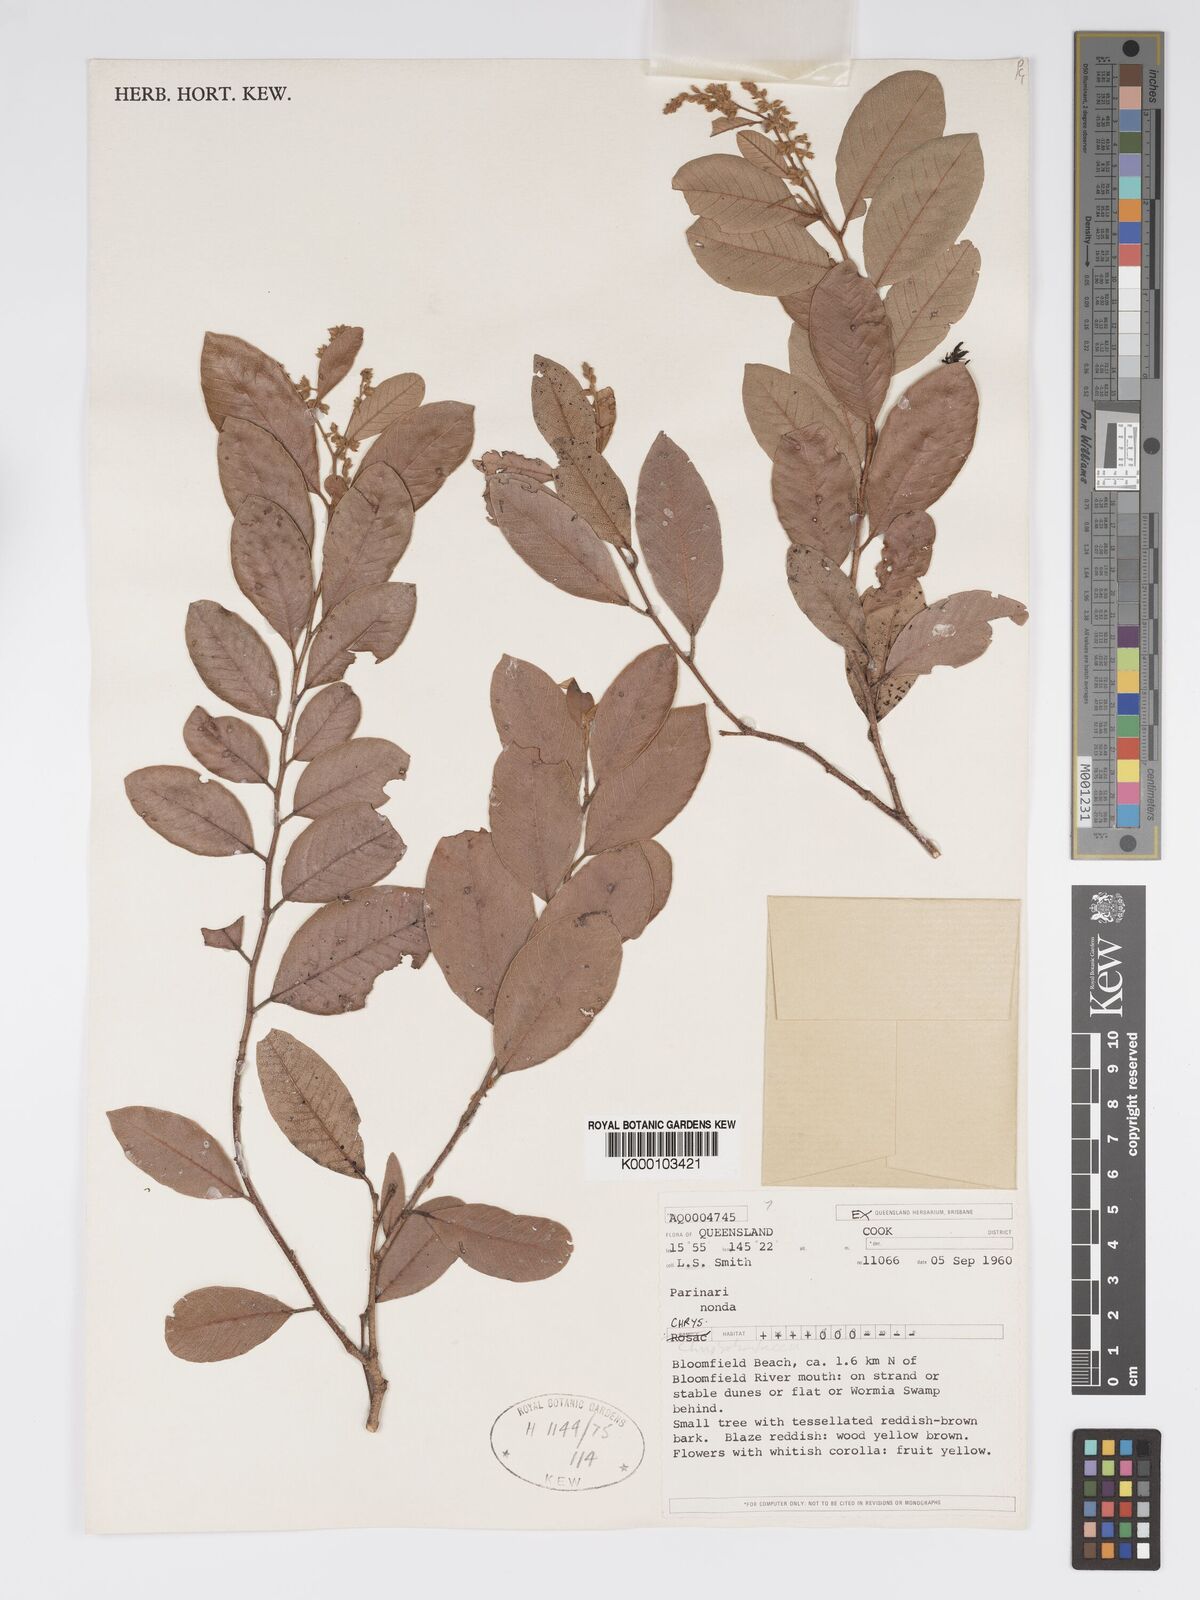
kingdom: Plantae
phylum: Tracheophyta
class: Magnoliopsida
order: Malpighiales
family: Chrysobalanaceae
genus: Parinari
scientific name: Parinari nonda
